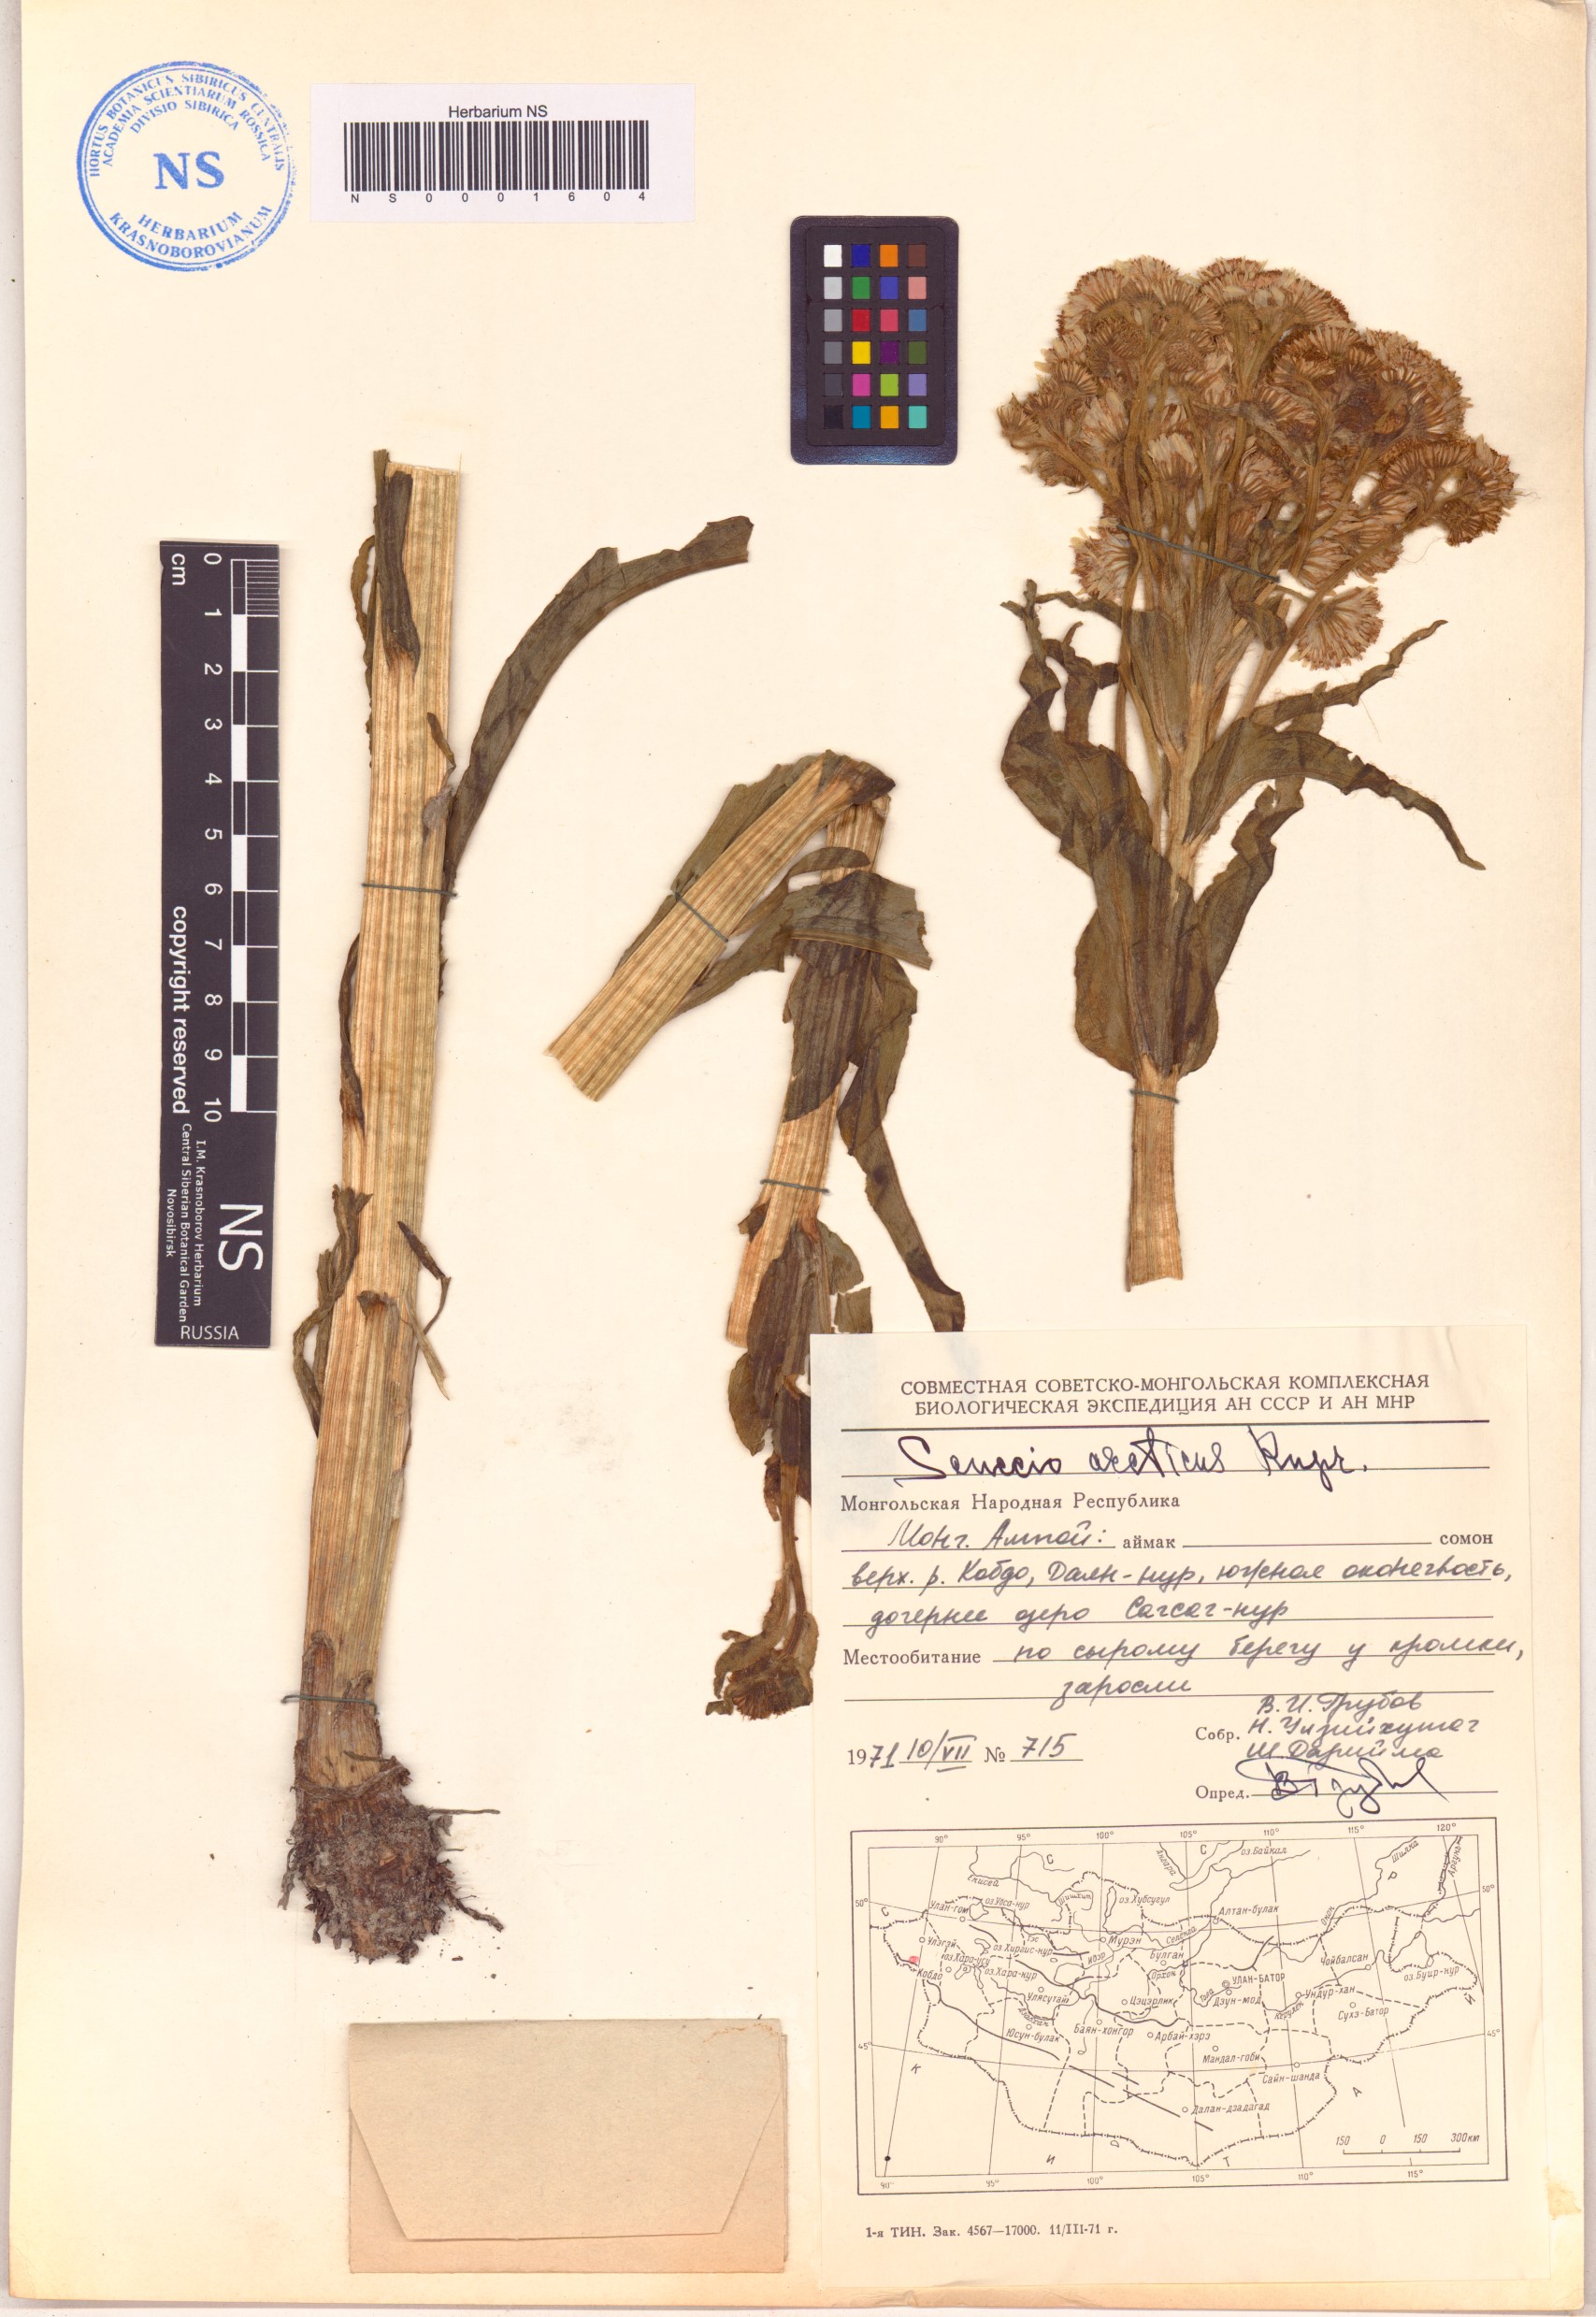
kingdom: Plantae
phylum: Tracheophyta
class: Magnoliopsida
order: Asterales
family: Asteraceae
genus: Tephroseris
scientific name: Tephroseris palustris
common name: Marsh fleawort
